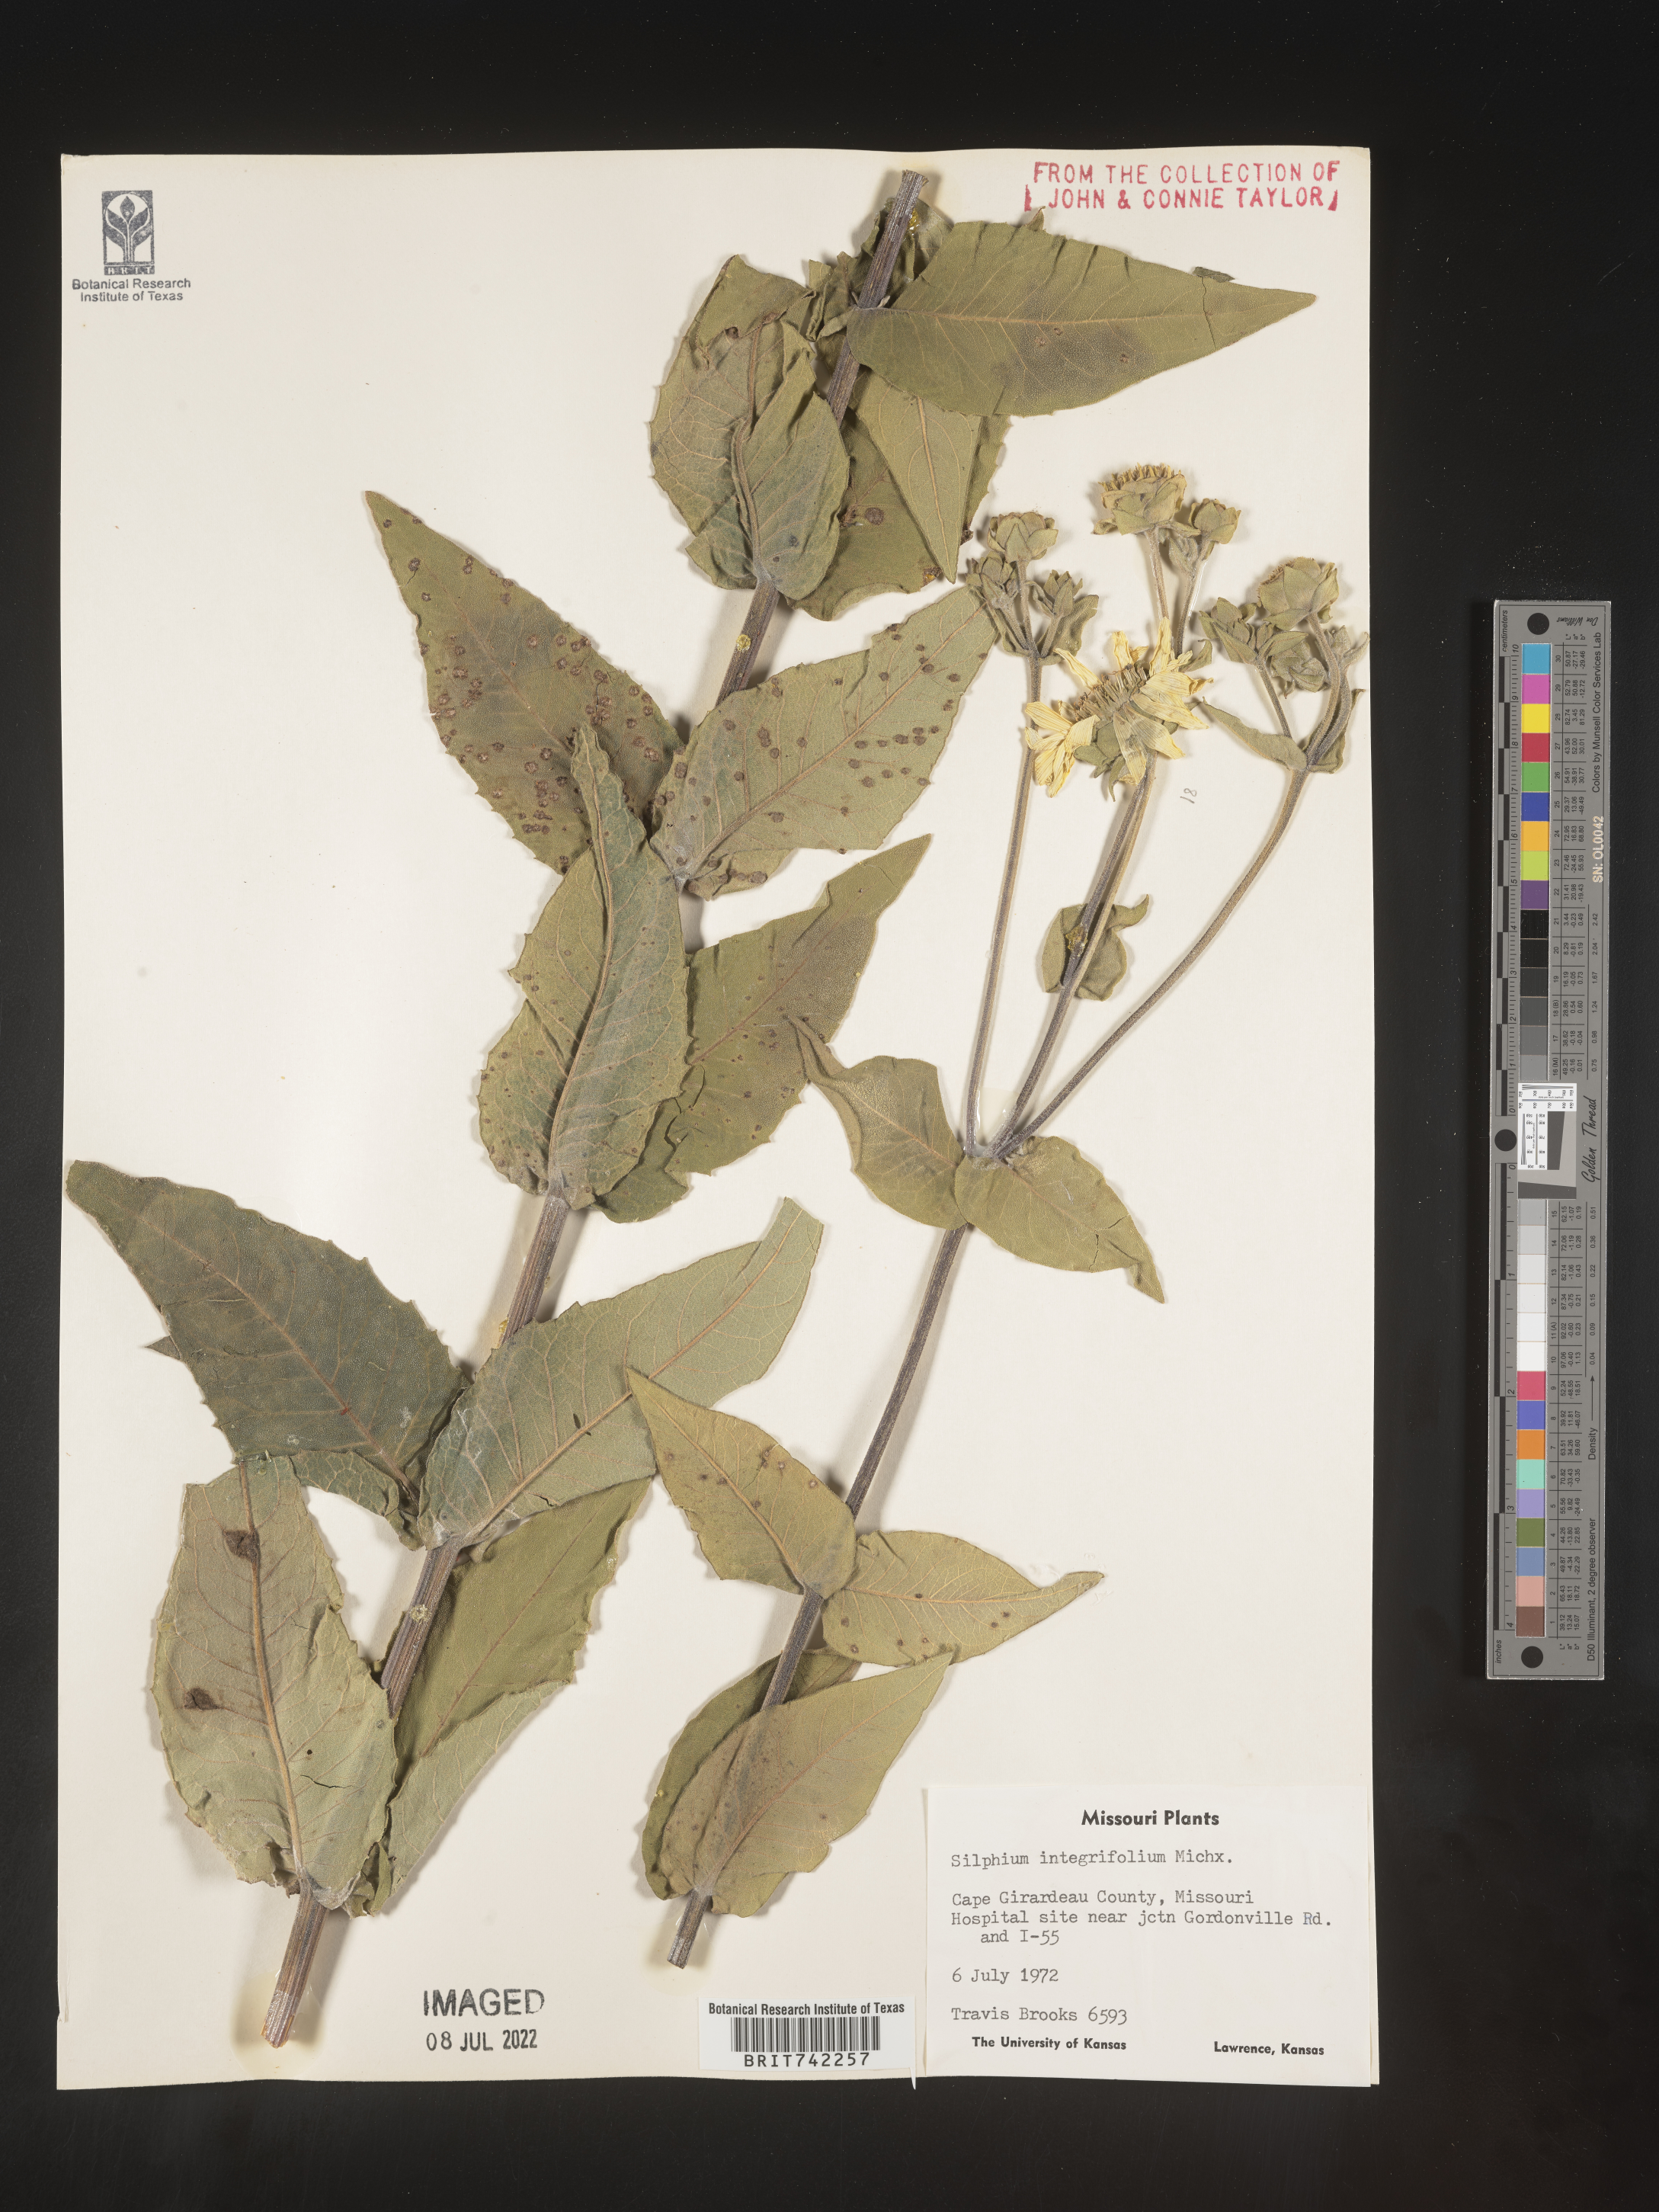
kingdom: Plantae
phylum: Tracheophyta
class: Magnoliopsida
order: Asterales
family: Asteraceae
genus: Silphium
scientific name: Silphium integrifolium
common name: Whole-leaf rosinweed
